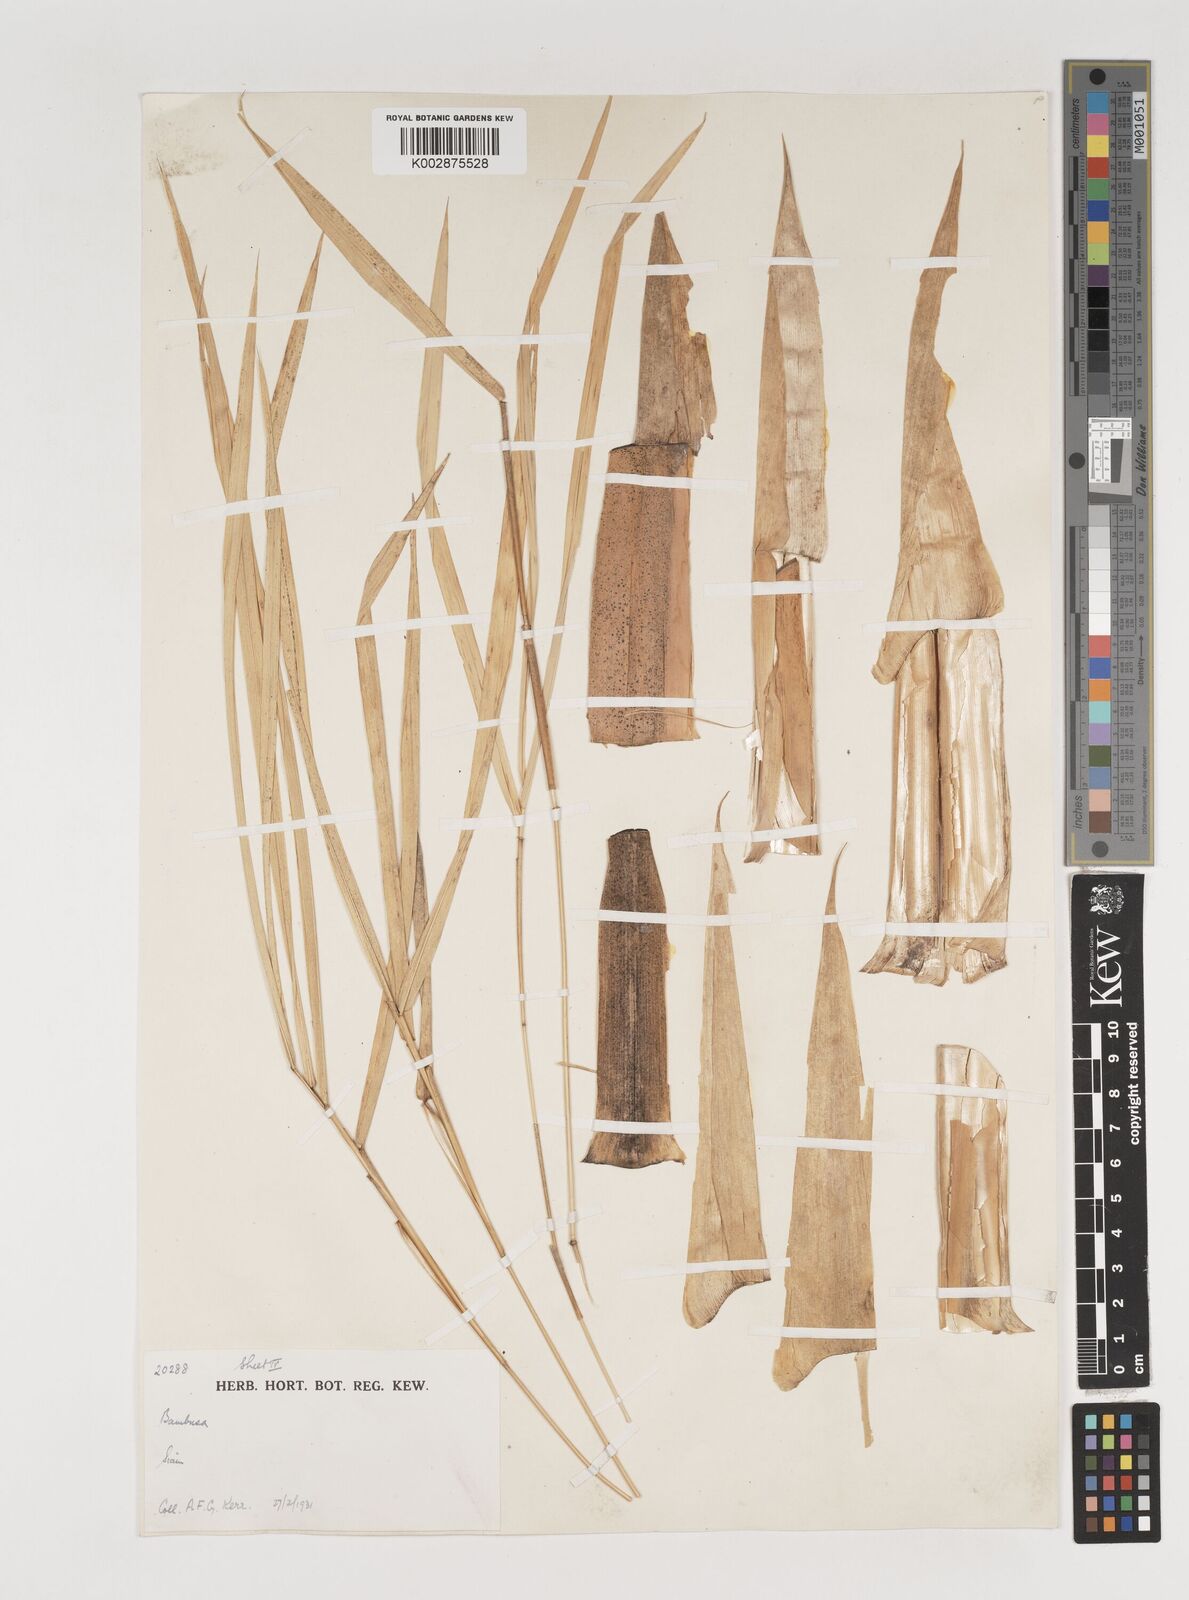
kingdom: Plantae
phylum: Tracheophyta
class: Liliopsida
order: Poales
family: Poaceae
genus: Vietnamosasa
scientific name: Vietnamosasa
